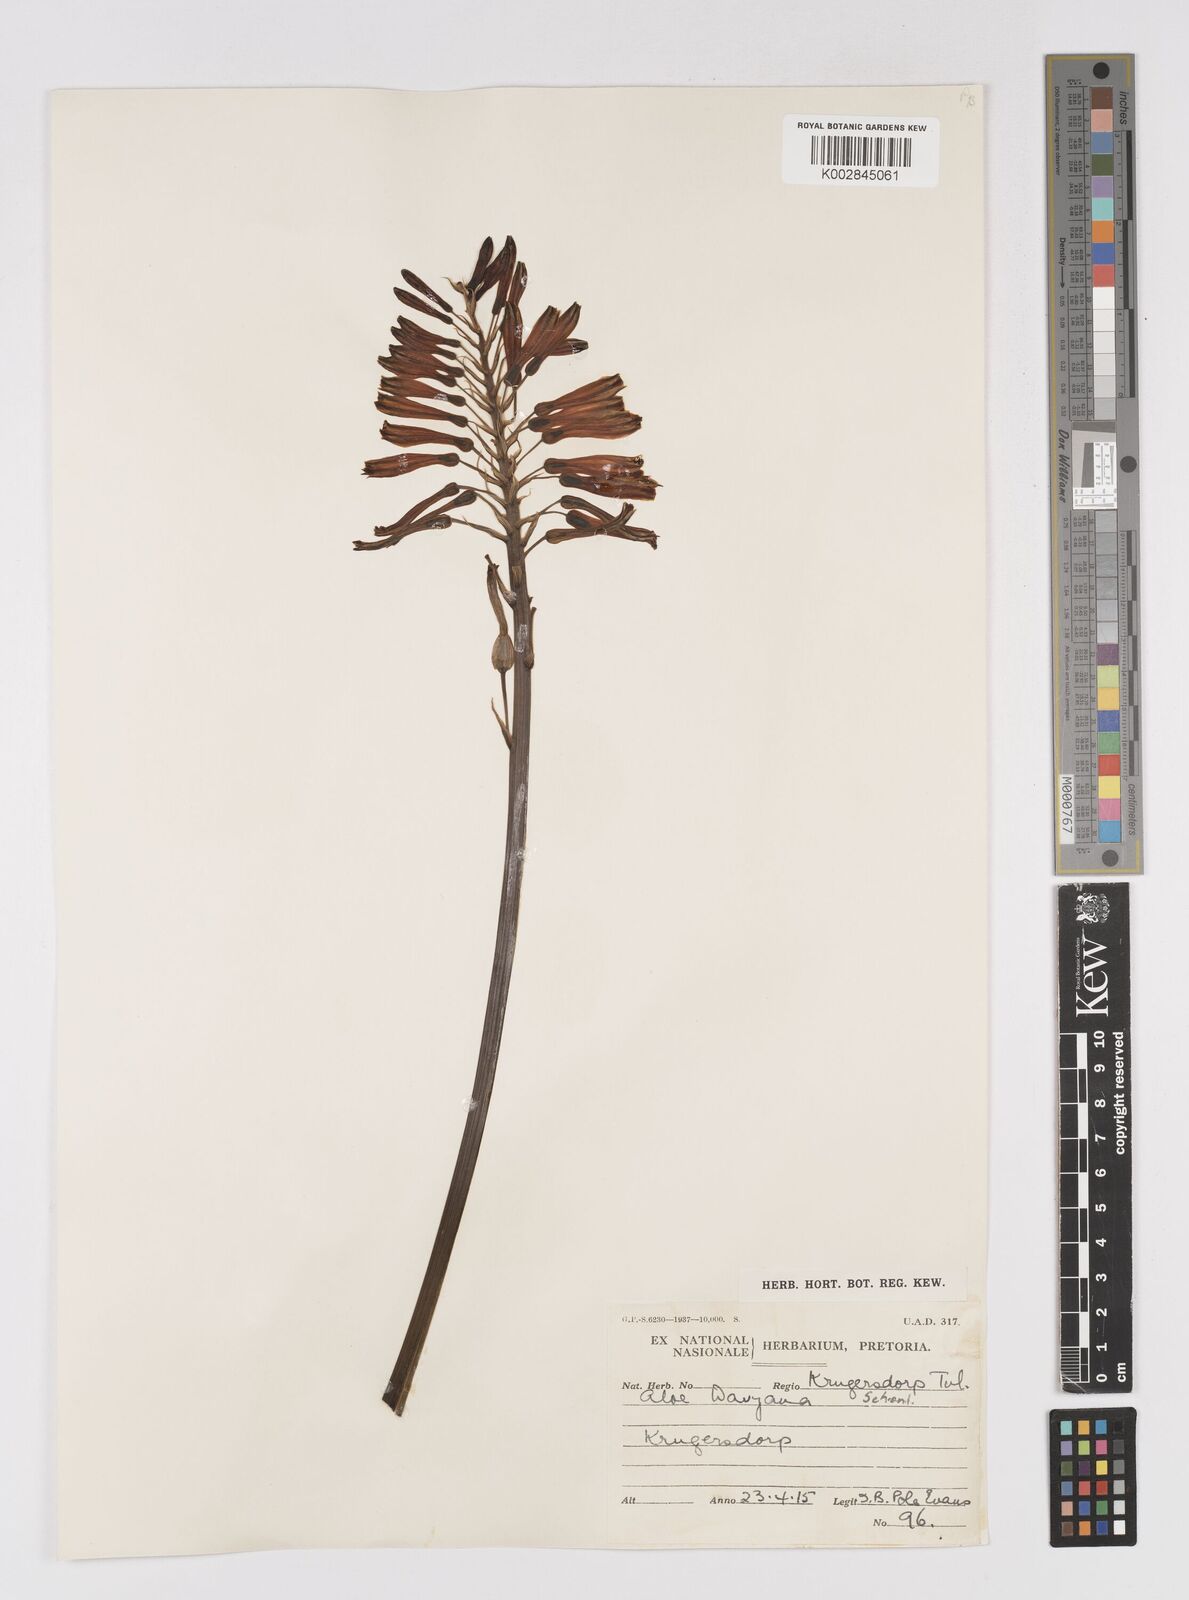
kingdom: Plantae
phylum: Tracheophyta
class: Liliopsida
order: Asparagales
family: Asphodelaceae
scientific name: Asphodelaceae
